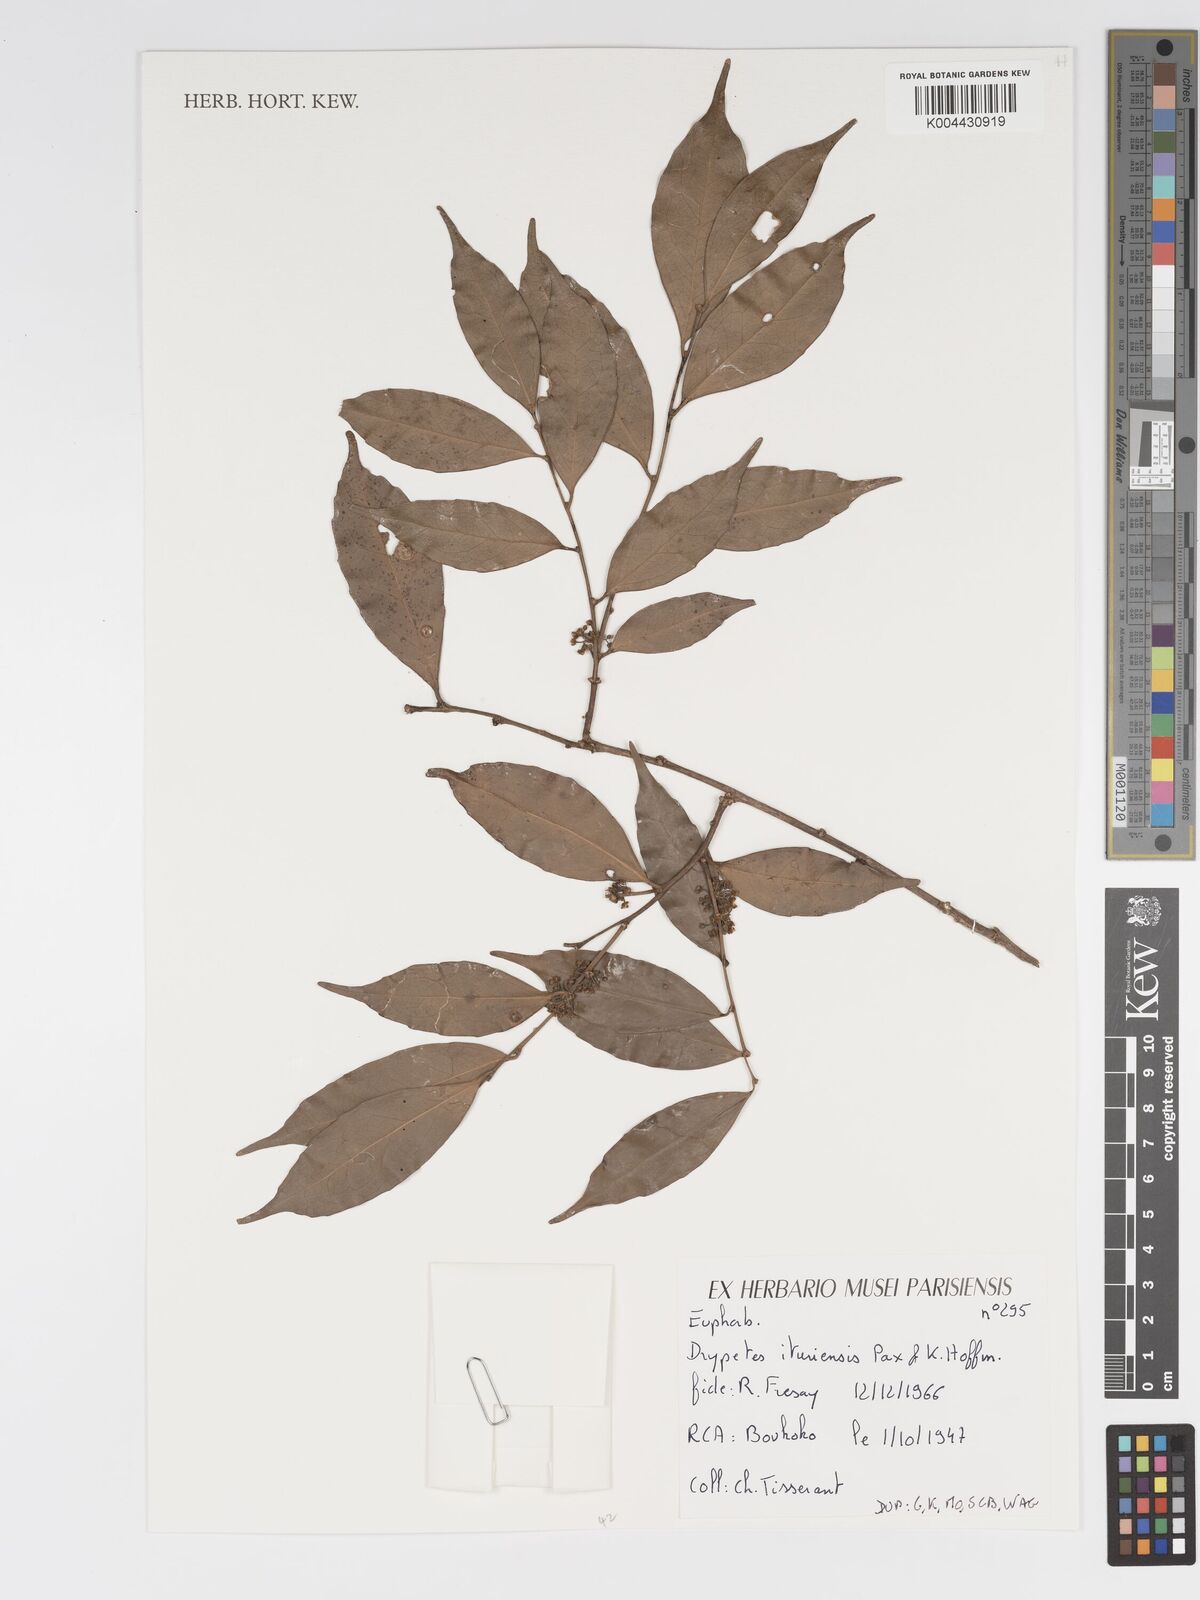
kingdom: Plantae
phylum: Tracheophyta
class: Magnoliopsida
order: Malpighiales
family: Putranjivaceae
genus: Drypetes
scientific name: Drypetes ituriensis
